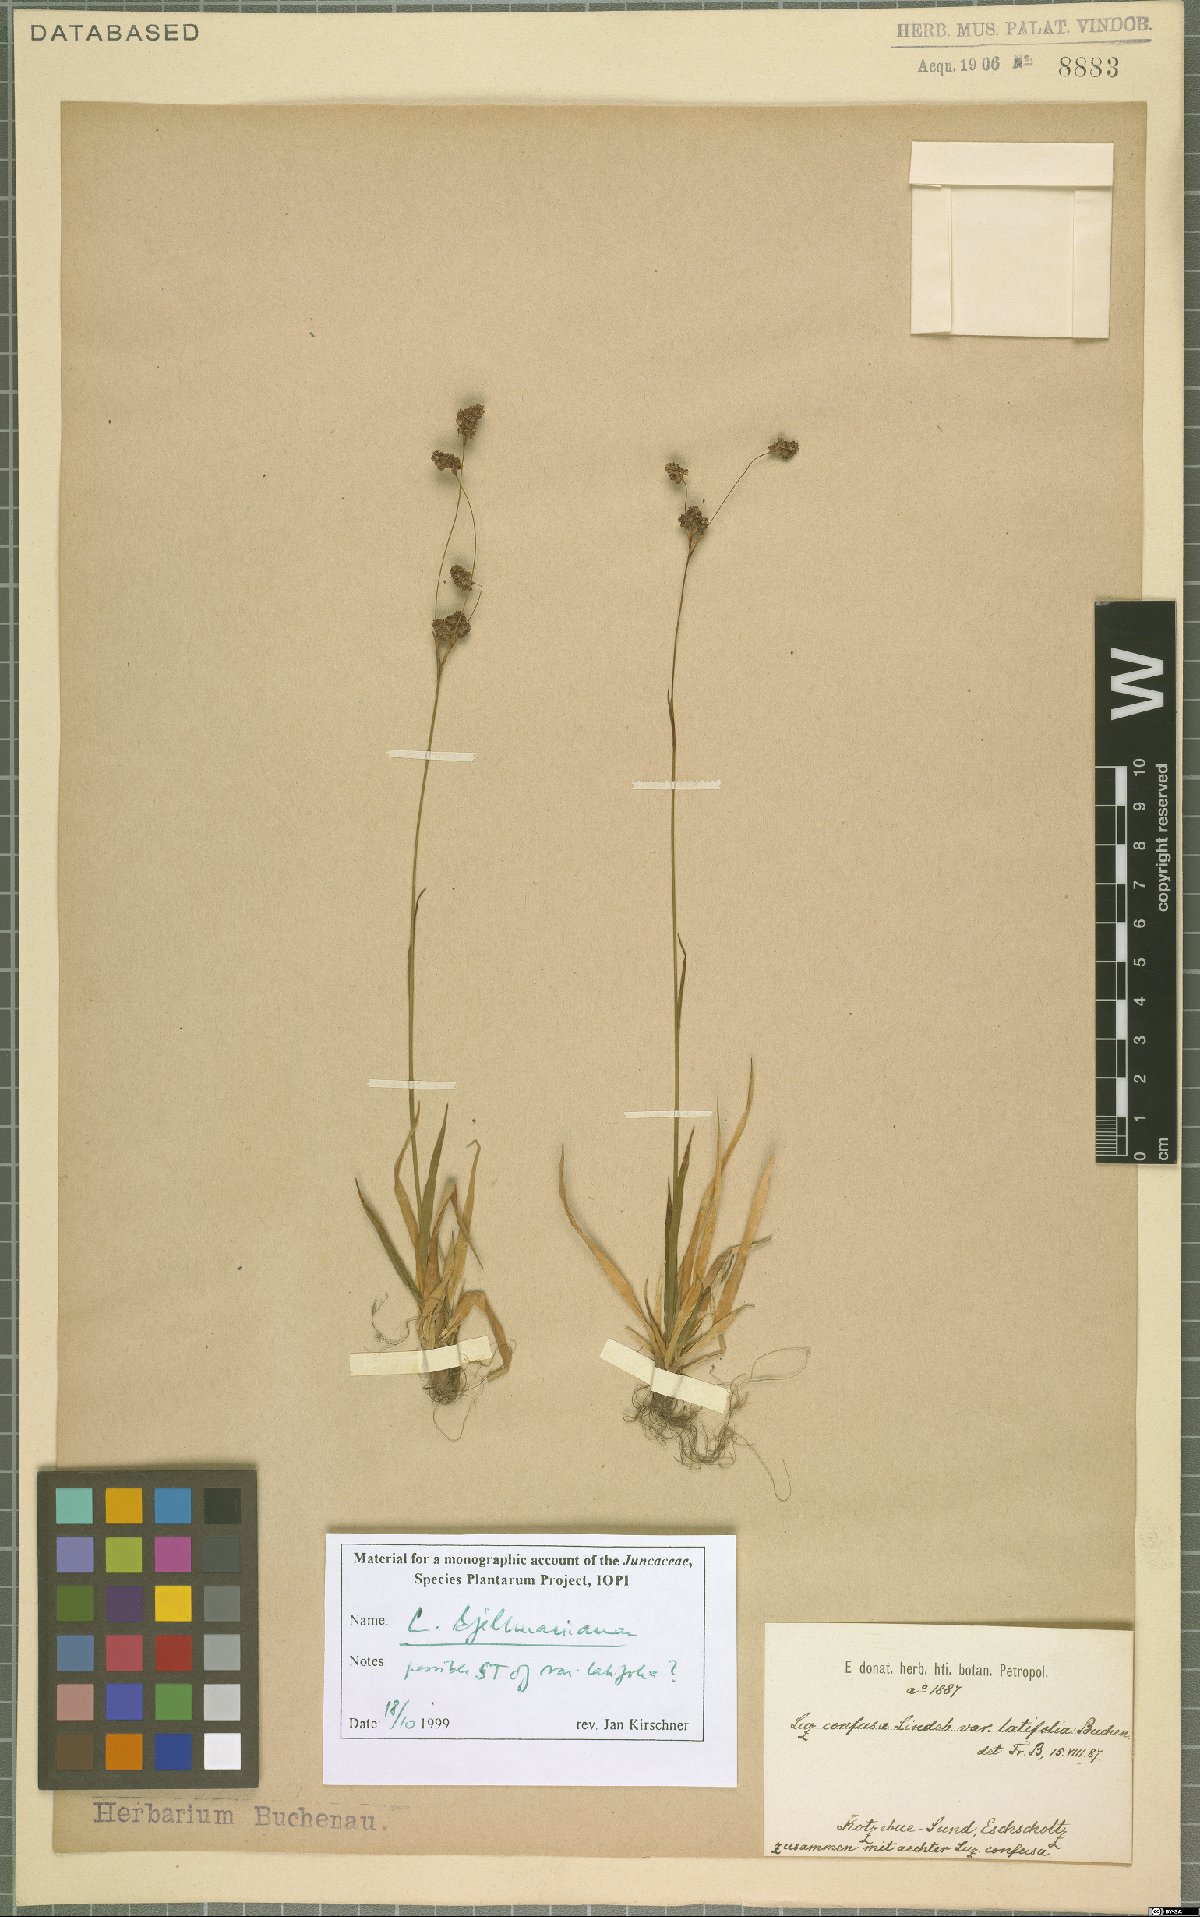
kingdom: Plantae
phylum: Tracheophyta
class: Liliopsida
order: Poales
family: Juncaceae
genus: Luzula
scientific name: Luzula kjellmaniana
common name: Kjellman's woodrush
